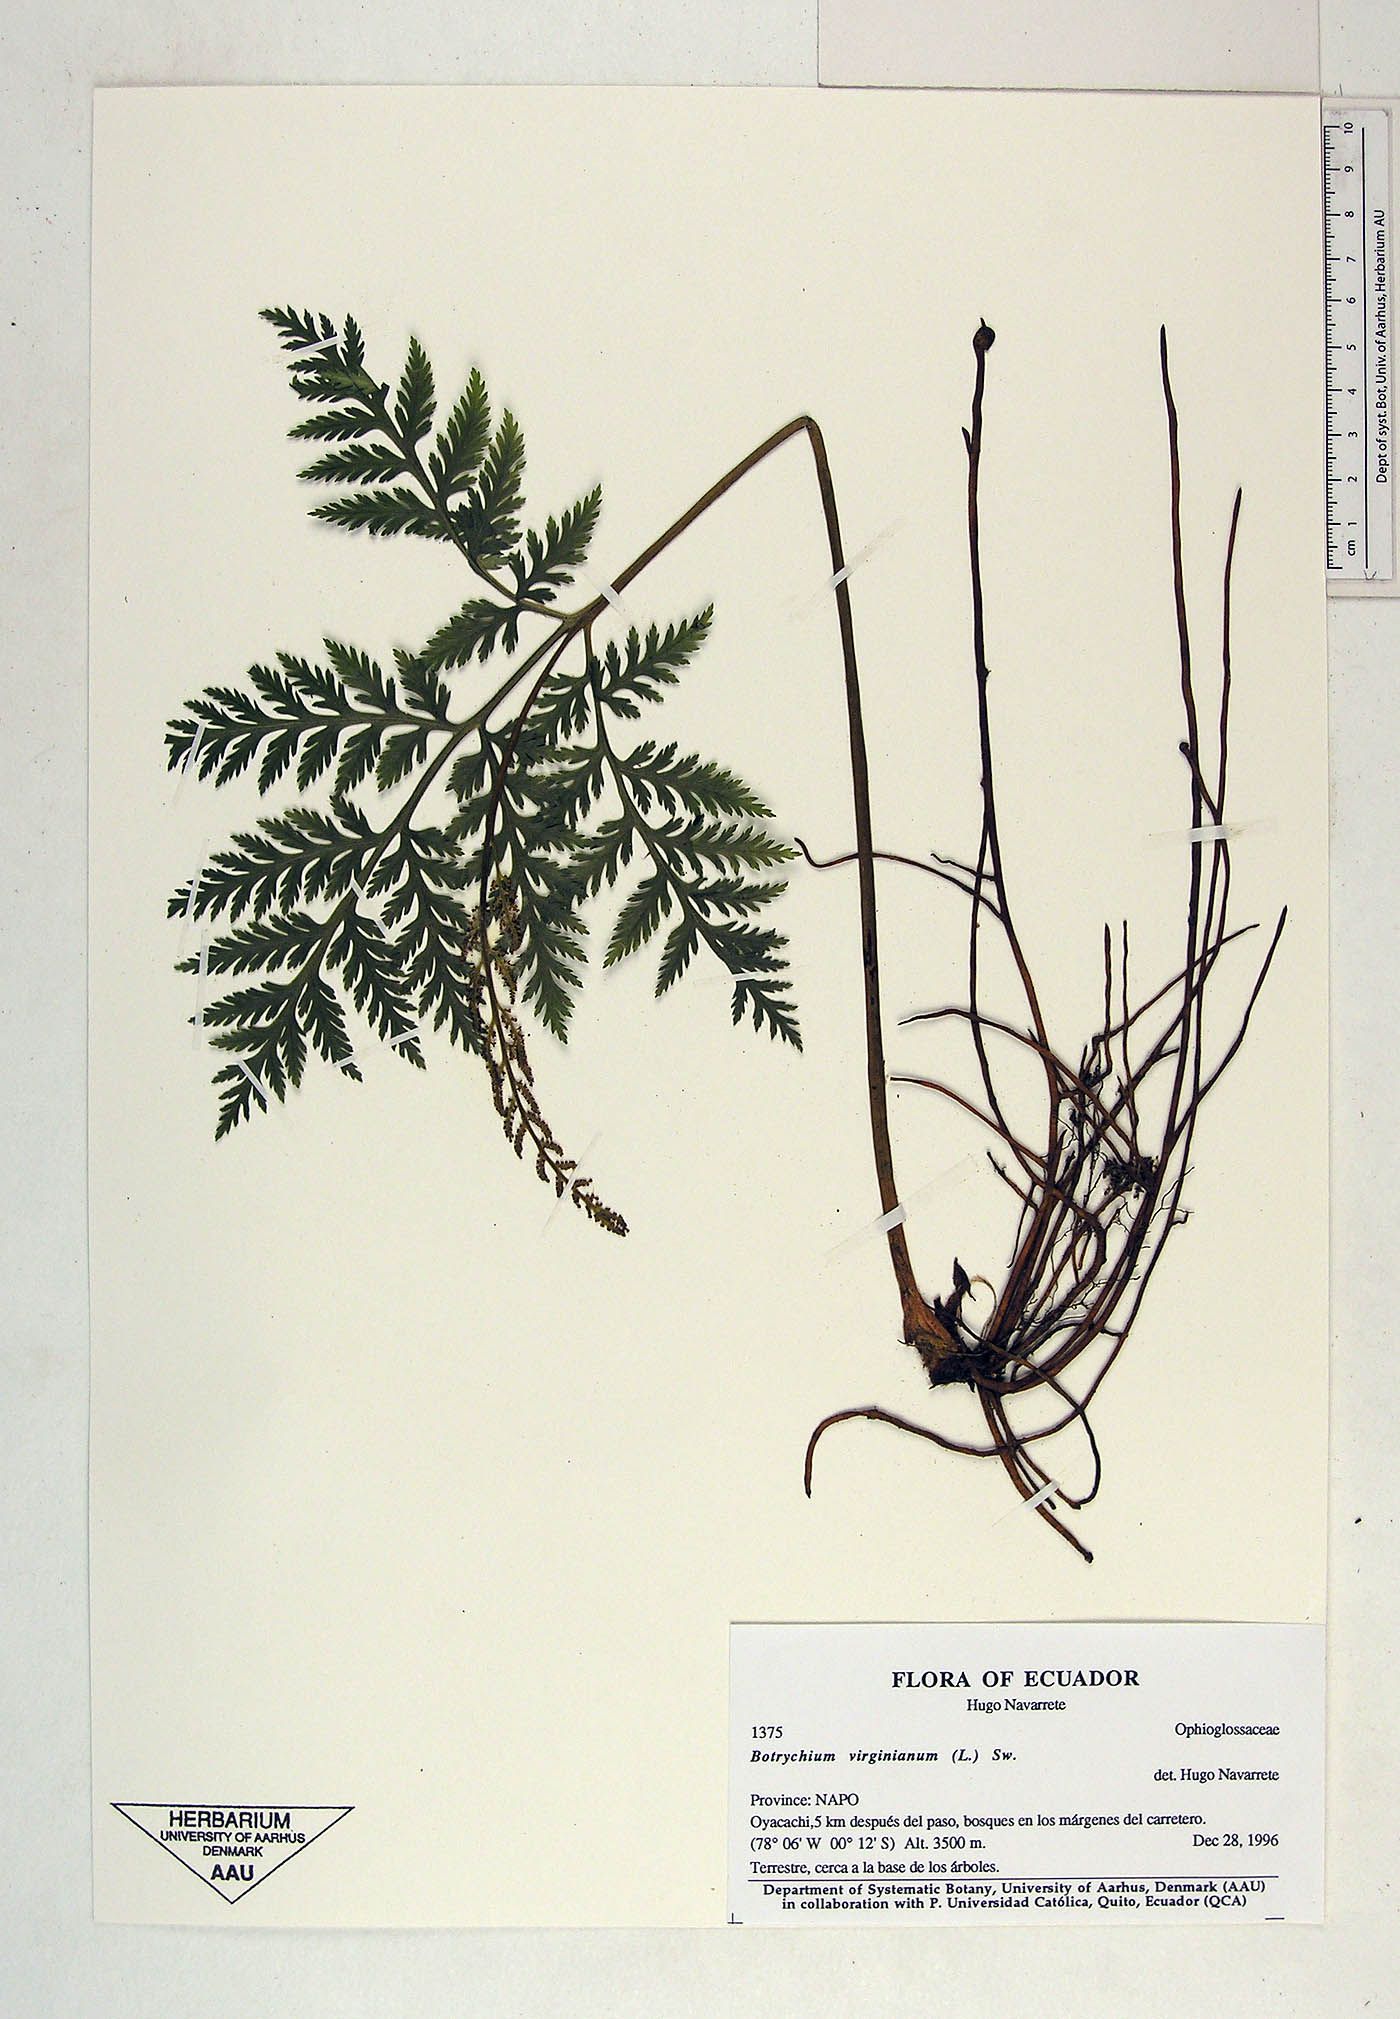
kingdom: Plantae
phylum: Tracheophyta
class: Polypodiopsida
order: Ophioglossales
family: Ophioglossaceae
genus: Botrychium
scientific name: Botrychium
